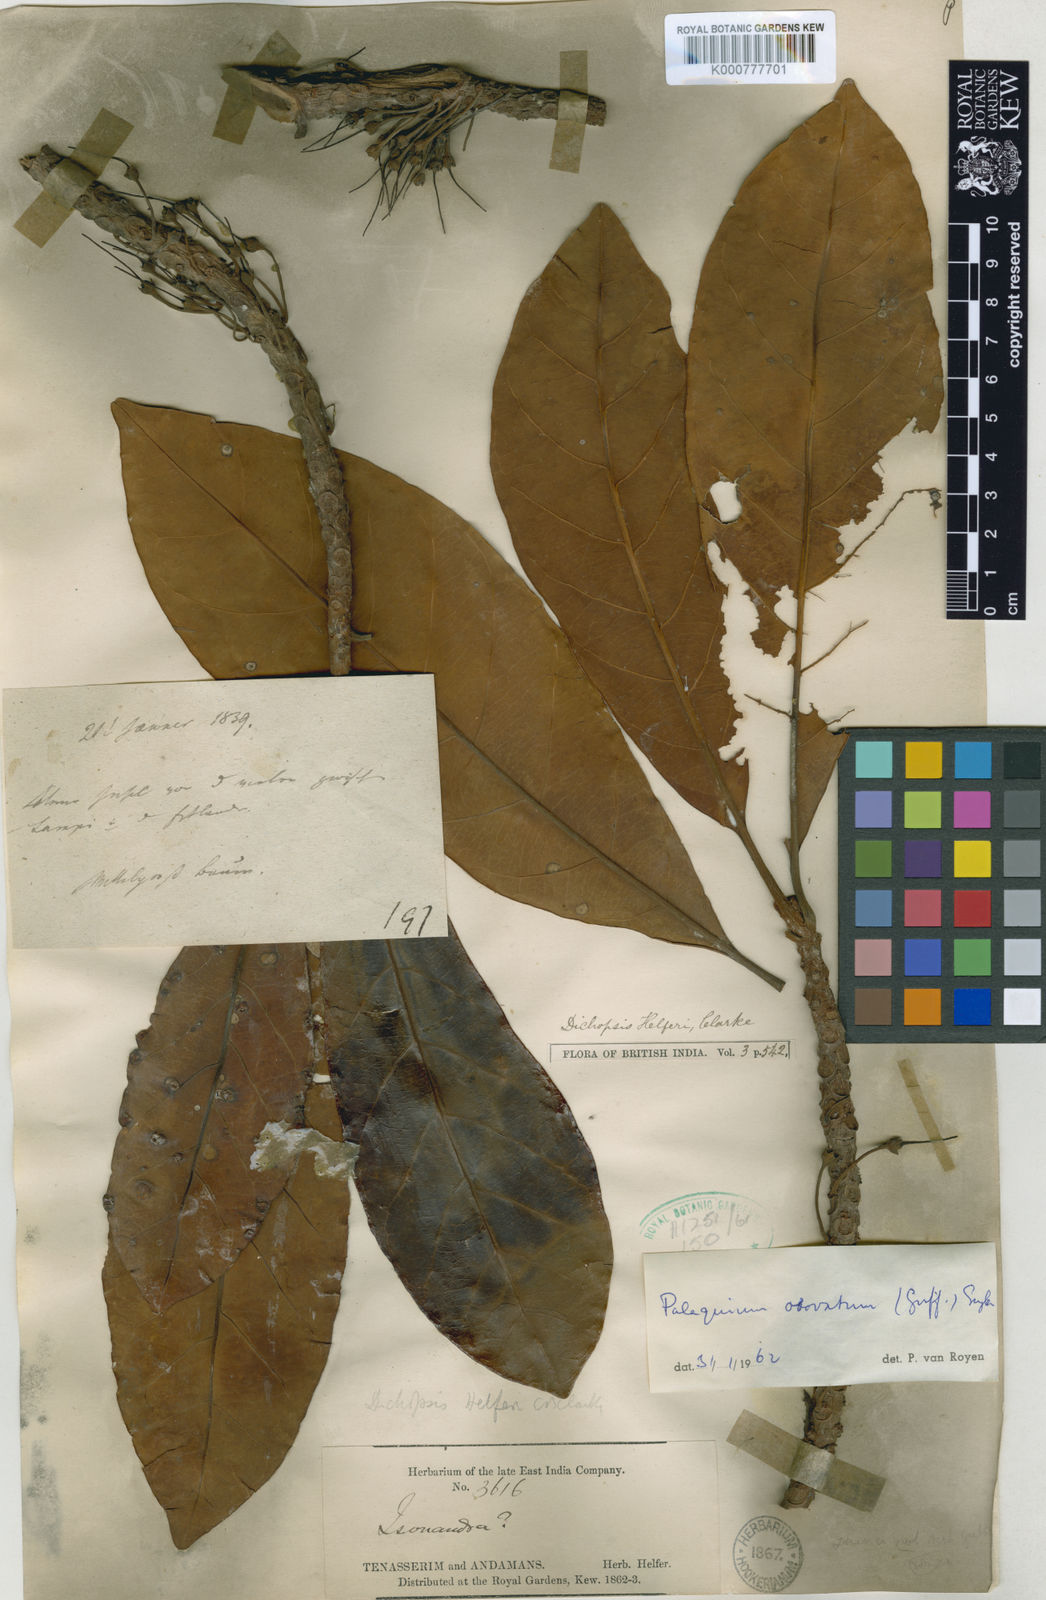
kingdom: Plantae
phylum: Tracheophyta
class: Magnoliopsida
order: Ericales
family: Sapotaceae
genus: Palaquium
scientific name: Palaquium obovatum
